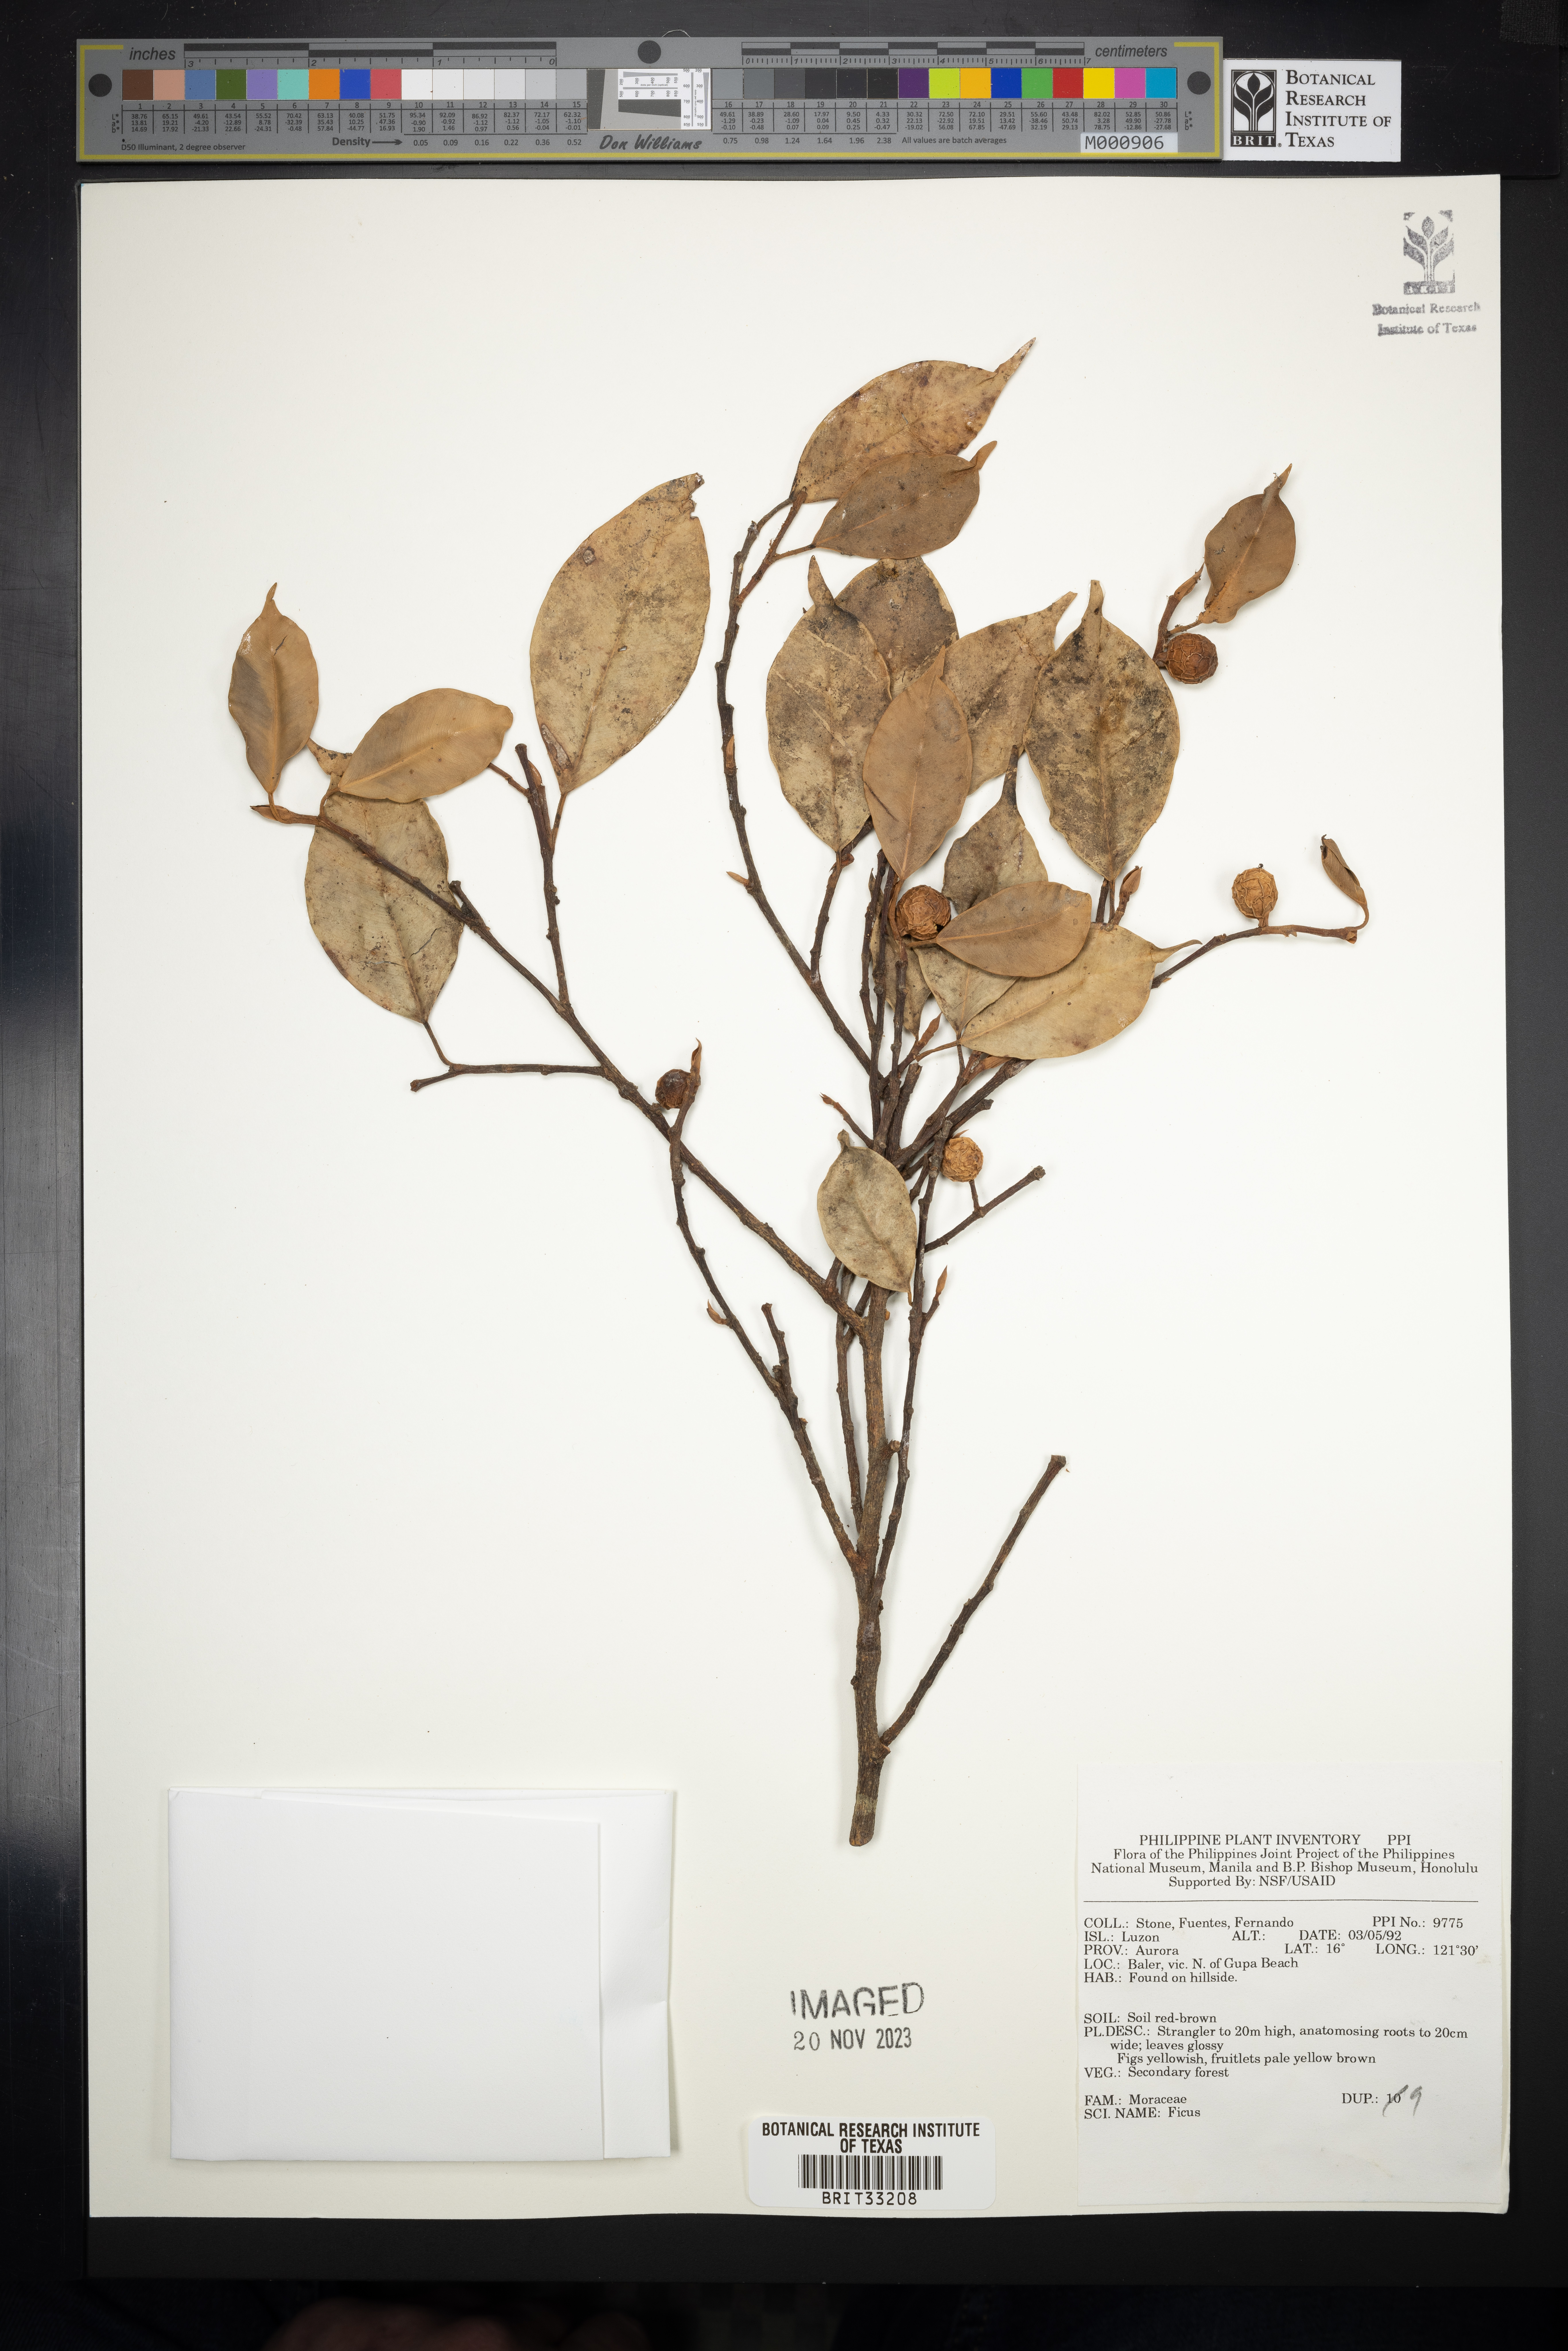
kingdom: Plantae
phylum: Tracheophyta
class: Magnoliopsida
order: Rosales
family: Moraceae
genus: Ficus
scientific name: Ficus
